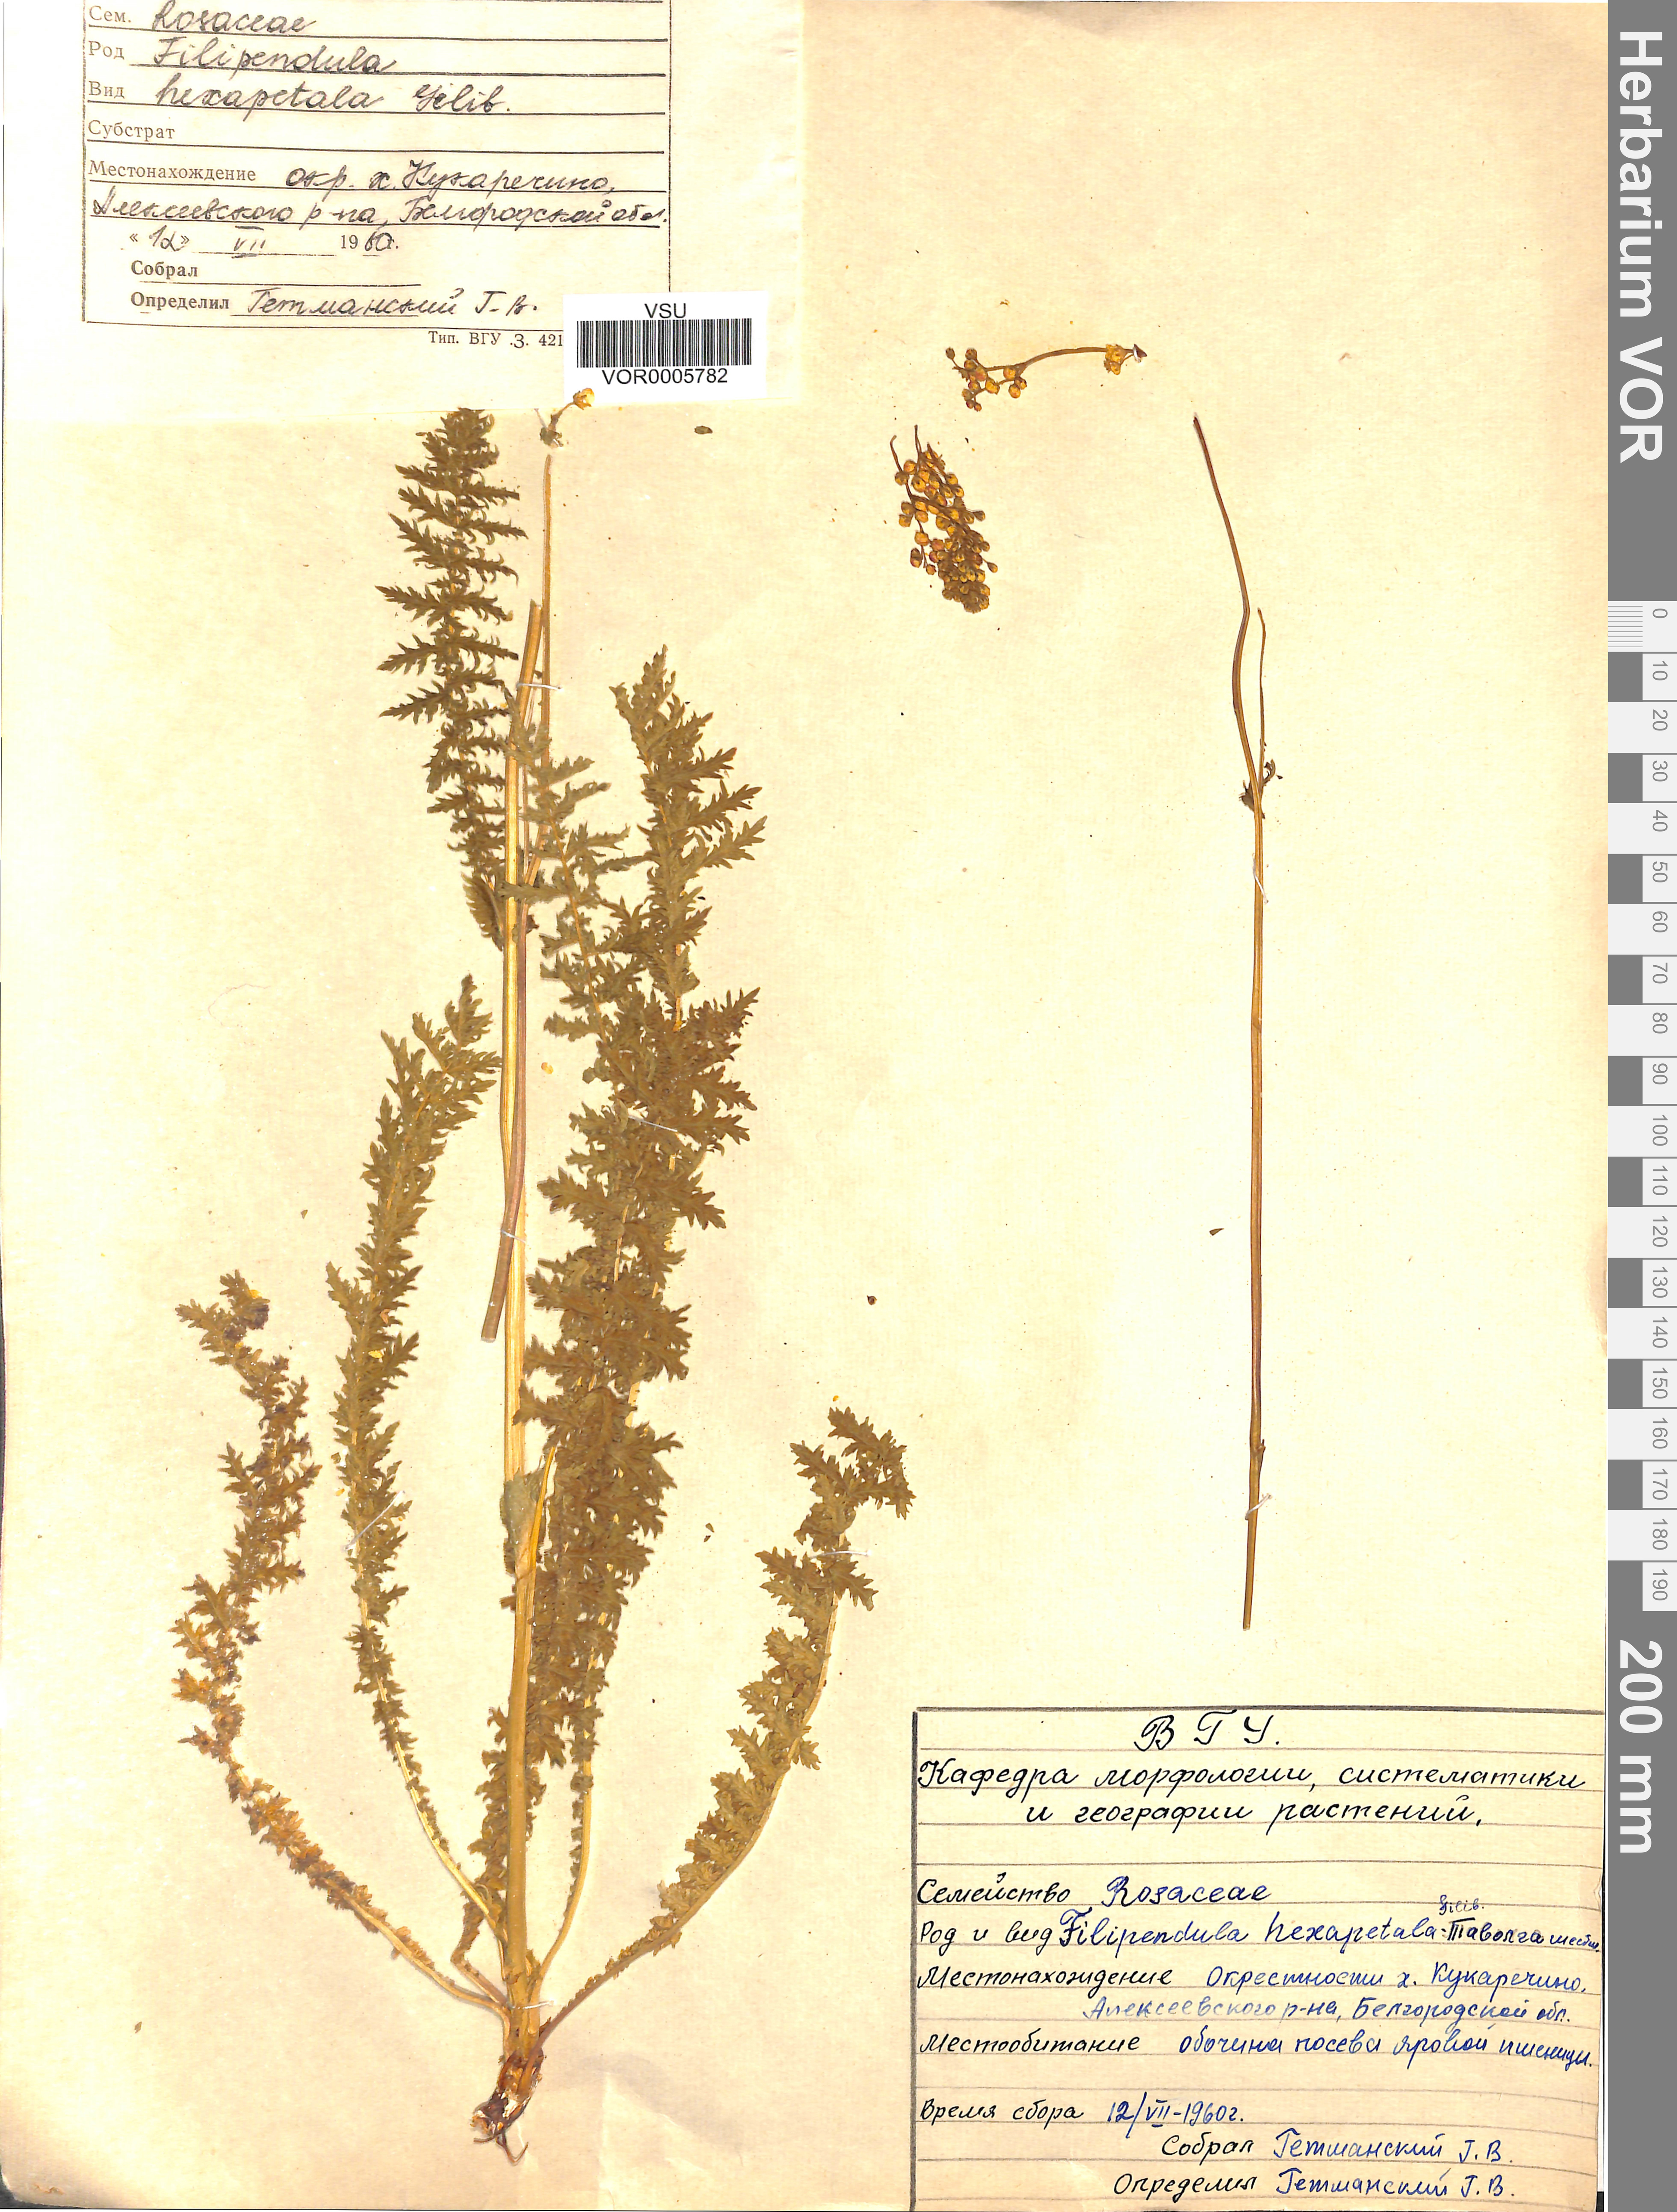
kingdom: Plantae
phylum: Tracheophyta
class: Magnoliopsida
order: Rosales
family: Rosaceae
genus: Filipendula
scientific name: Filipendula vulgaris
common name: Dropwort
